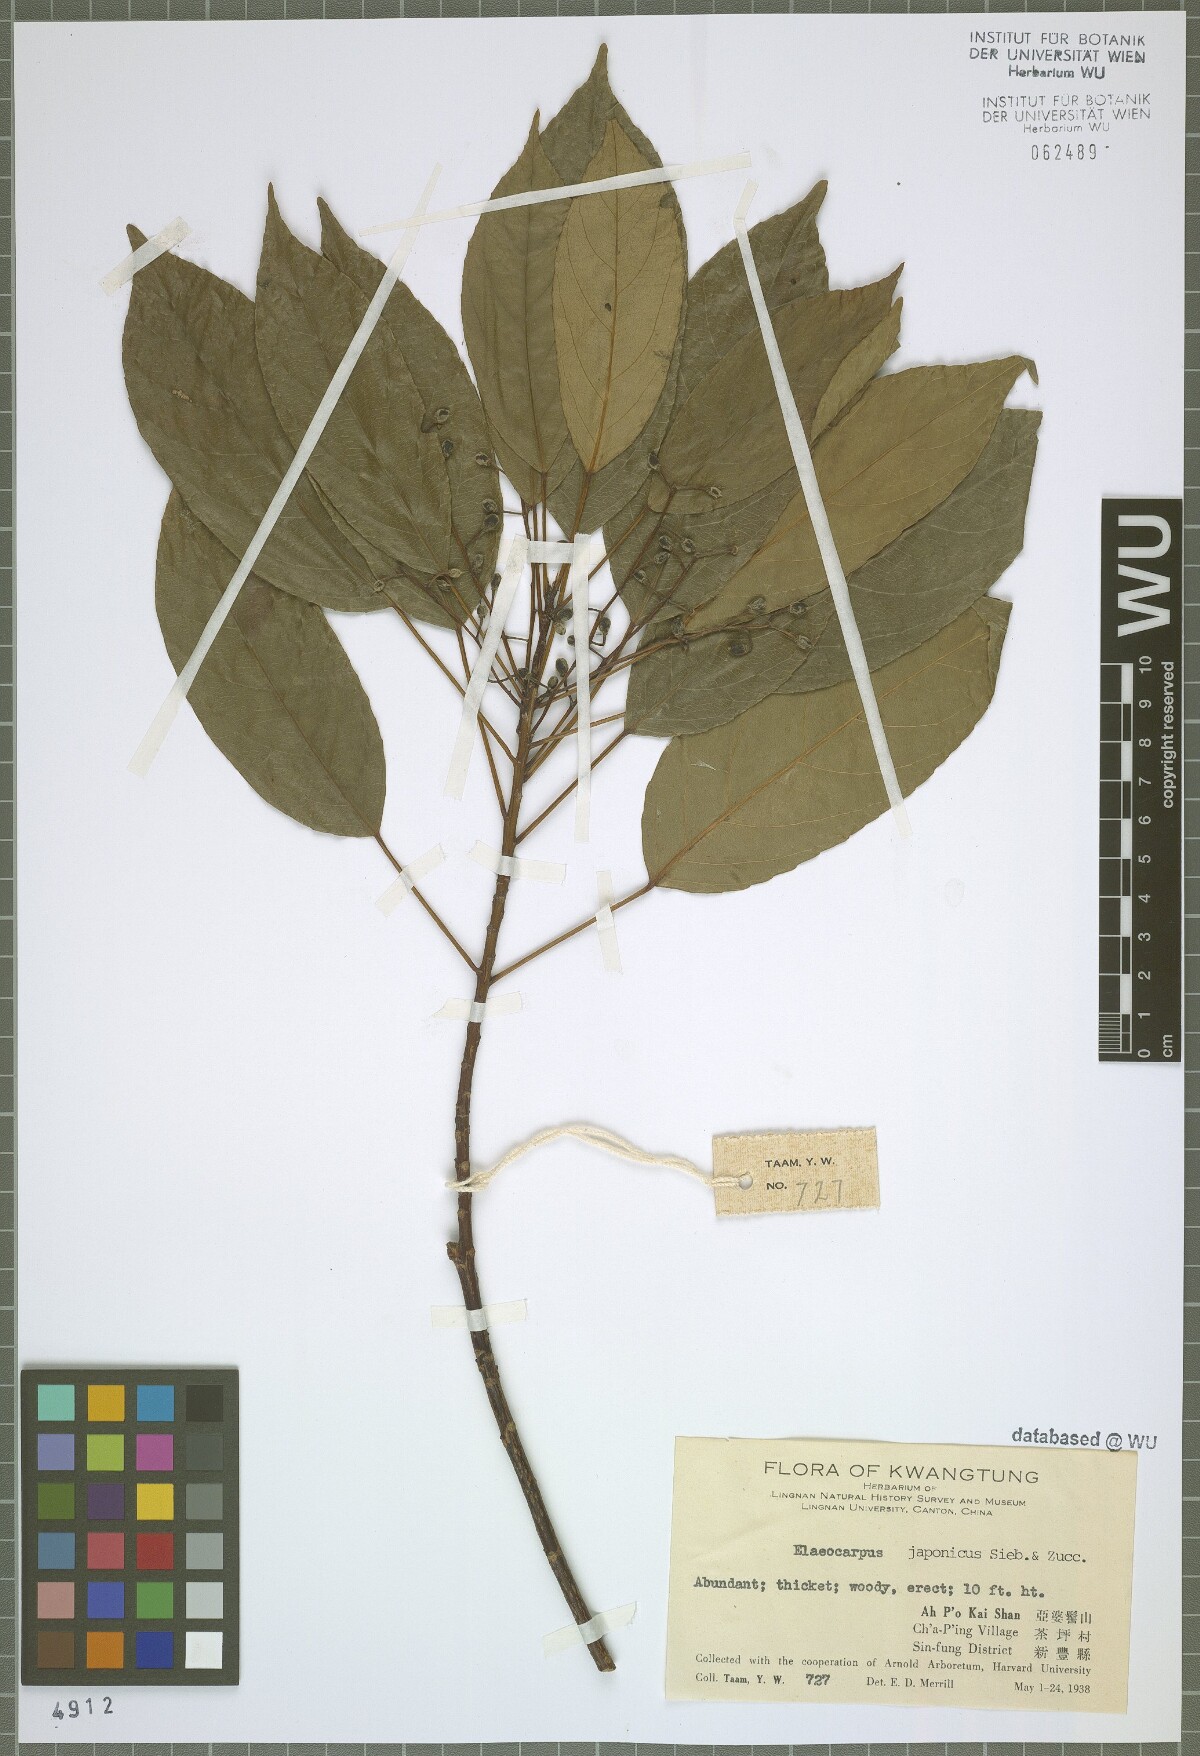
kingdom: Plantae
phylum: Tracheophyta
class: Magnoliopsida
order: Oxalidales
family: Elaeocarpaceae
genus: Elaeocarpus
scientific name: Elaeocarpus japonicus
